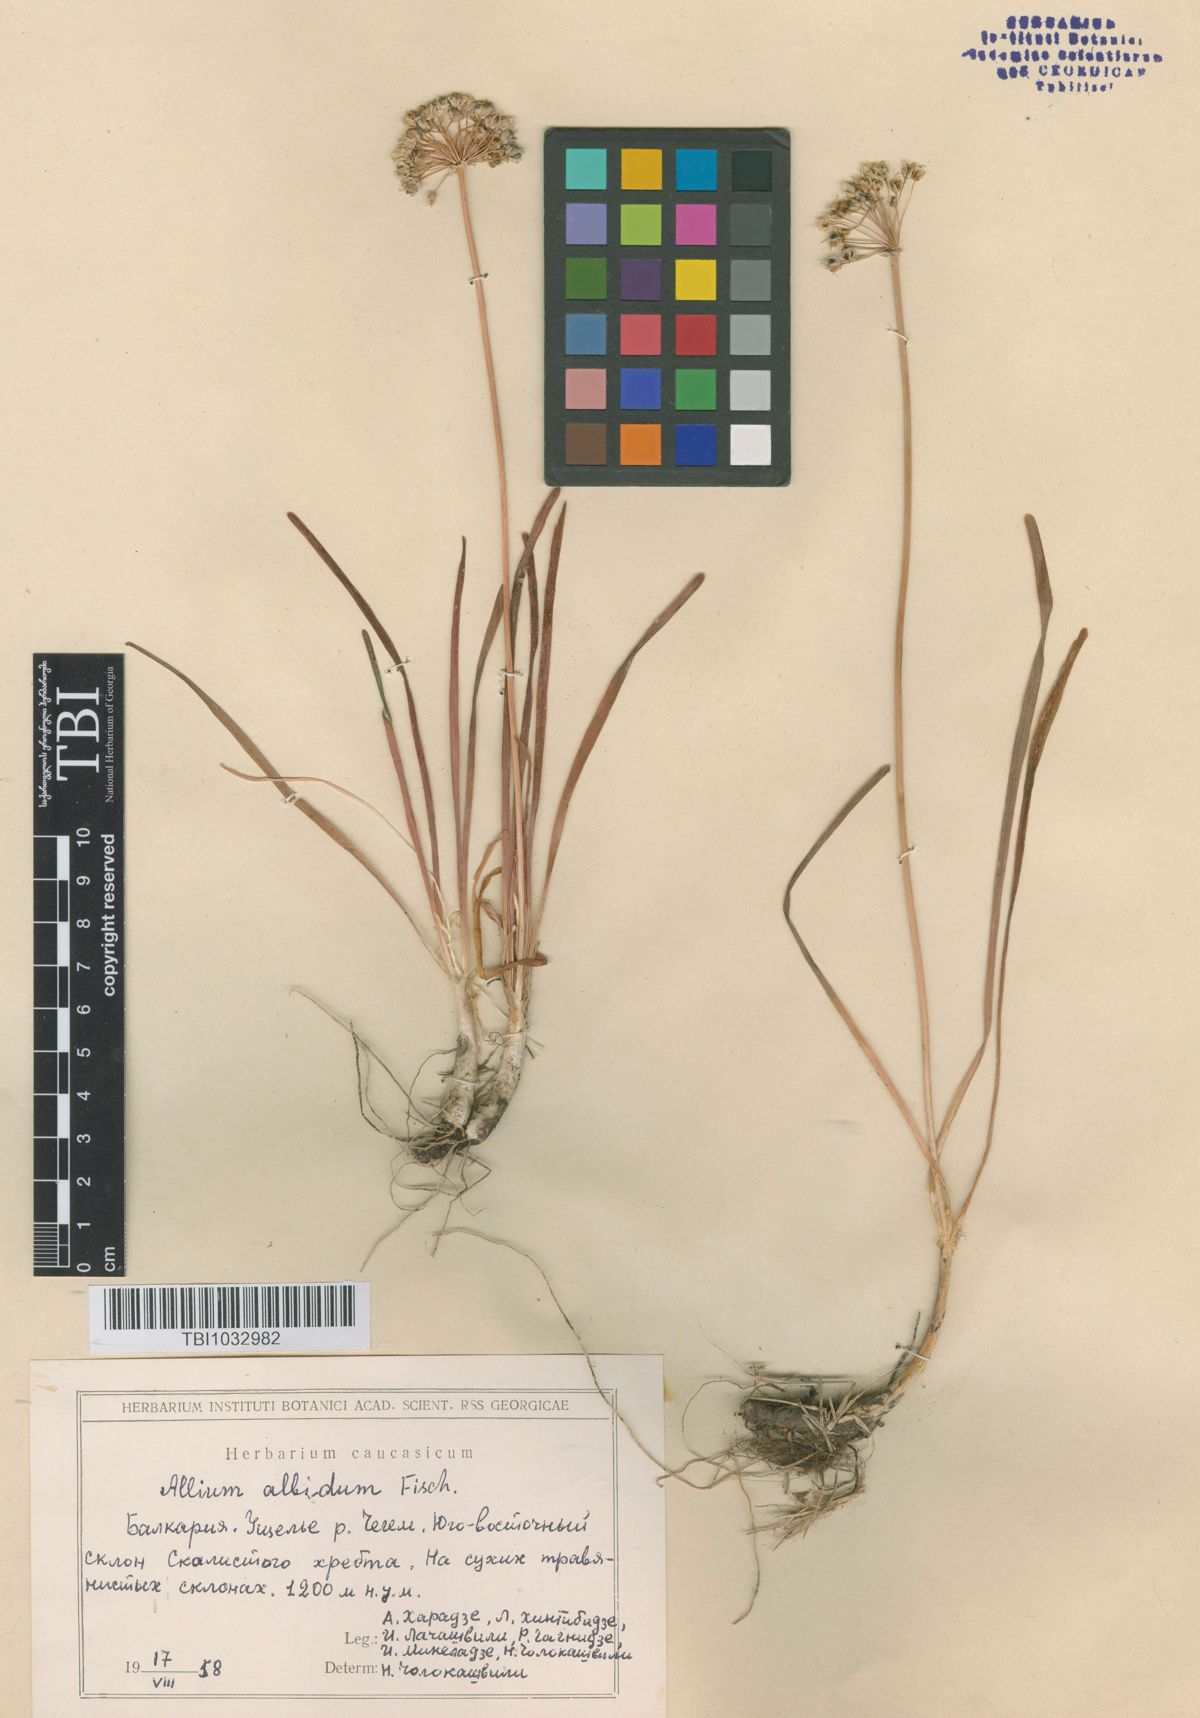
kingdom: Plantae
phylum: Tracheophyta
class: Liliopsida
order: Asparagales
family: Amaryllidaceae
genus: Allium
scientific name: Allium denudatum
